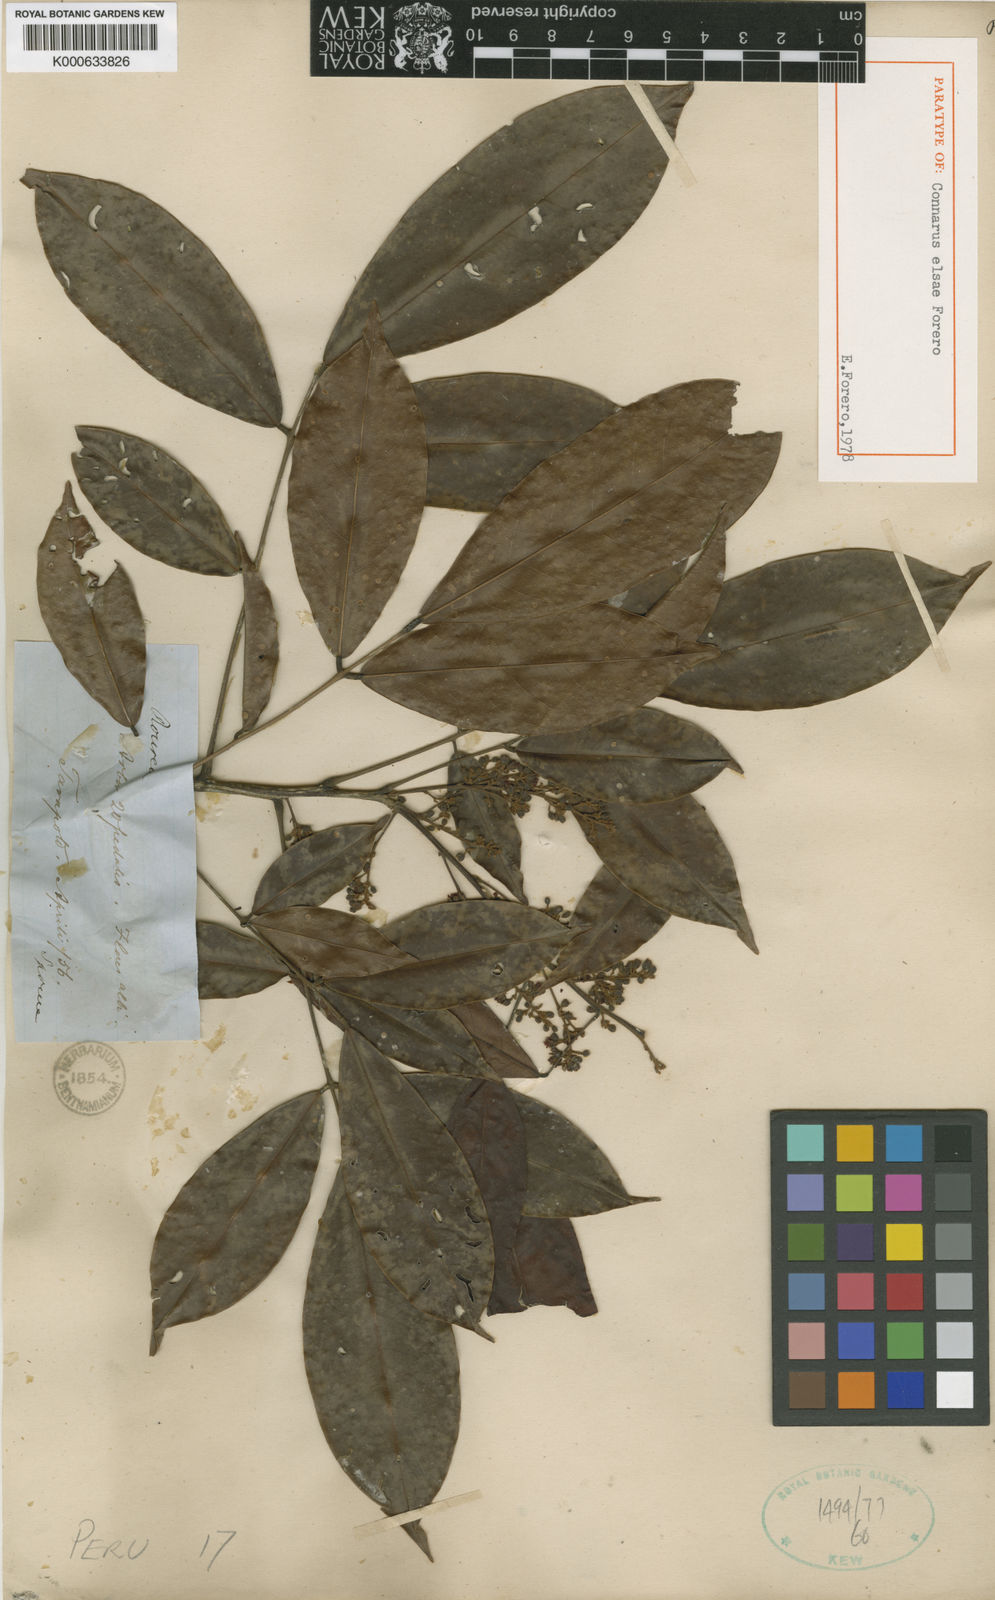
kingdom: Plantae
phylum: Tracheophyta
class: Magnoliopsida
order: Oxalidales
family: Connaraceae
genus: Connarus
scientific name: Connarus elsae
